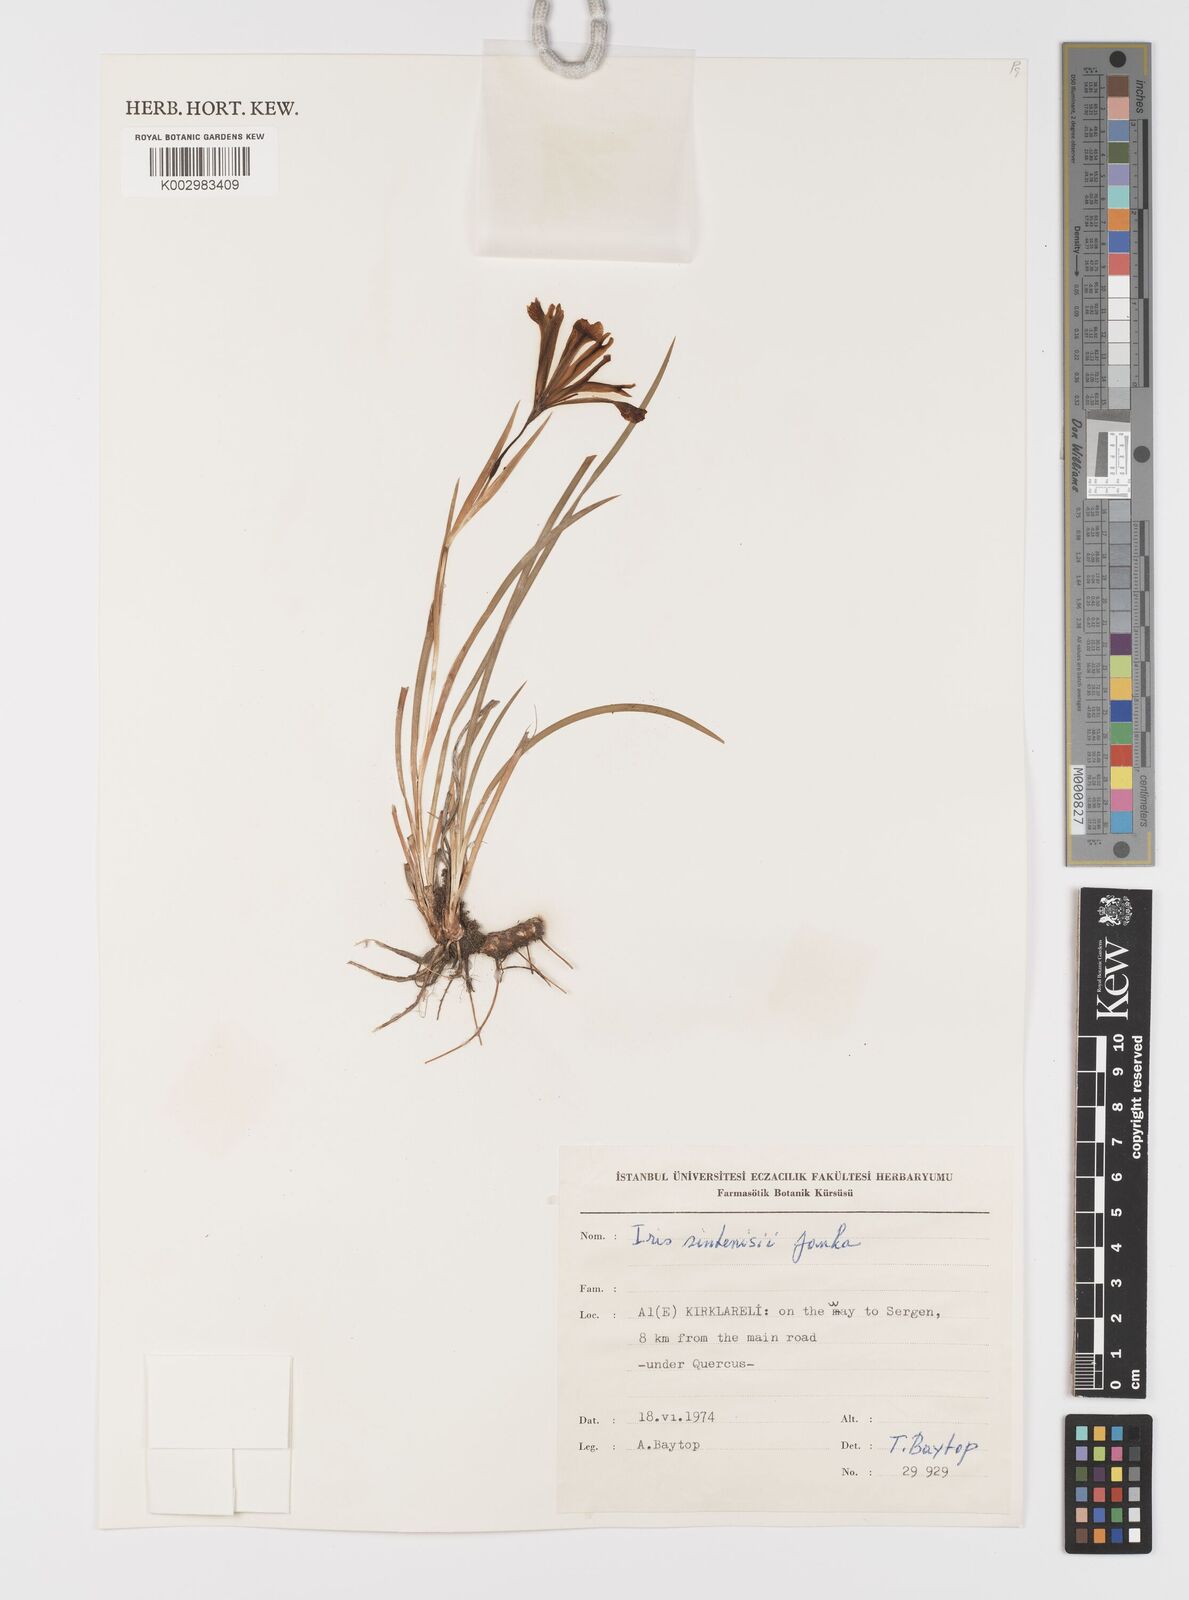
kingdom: Plantae
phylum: Tracheophyta
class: Liliopsida
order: Asparagales
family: Iridaceae
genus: Iris
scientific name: Iris sintenisii
